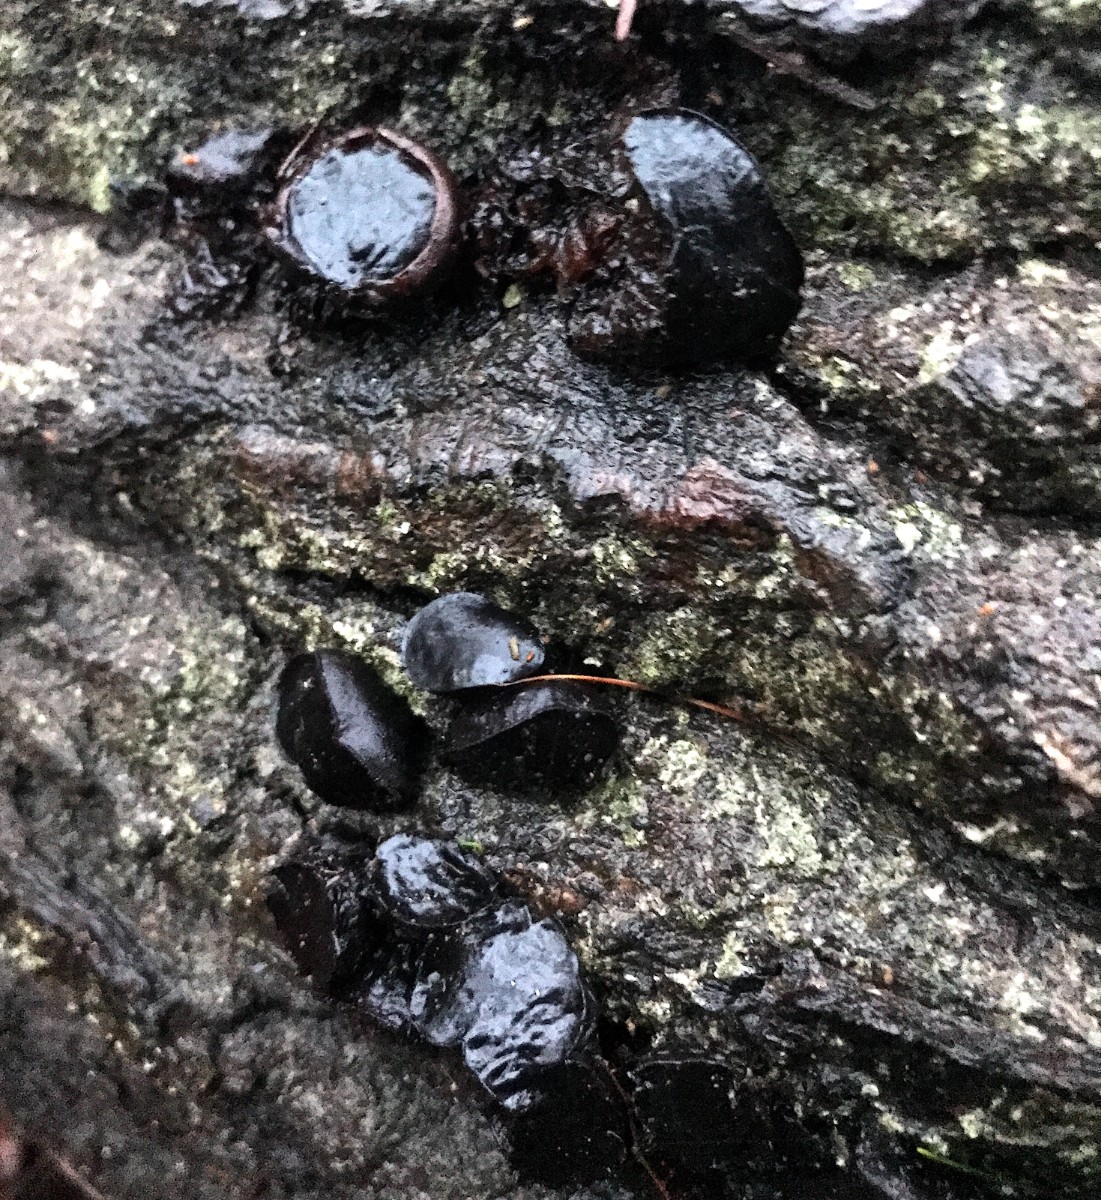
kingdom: Fungi
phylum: Ascomycota
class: Leotiomycetes
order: Phacidiales
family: Phacidiaceae
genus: Bulgaria
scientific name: Bulgaria inquinans
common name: afsmittende topsvamp
